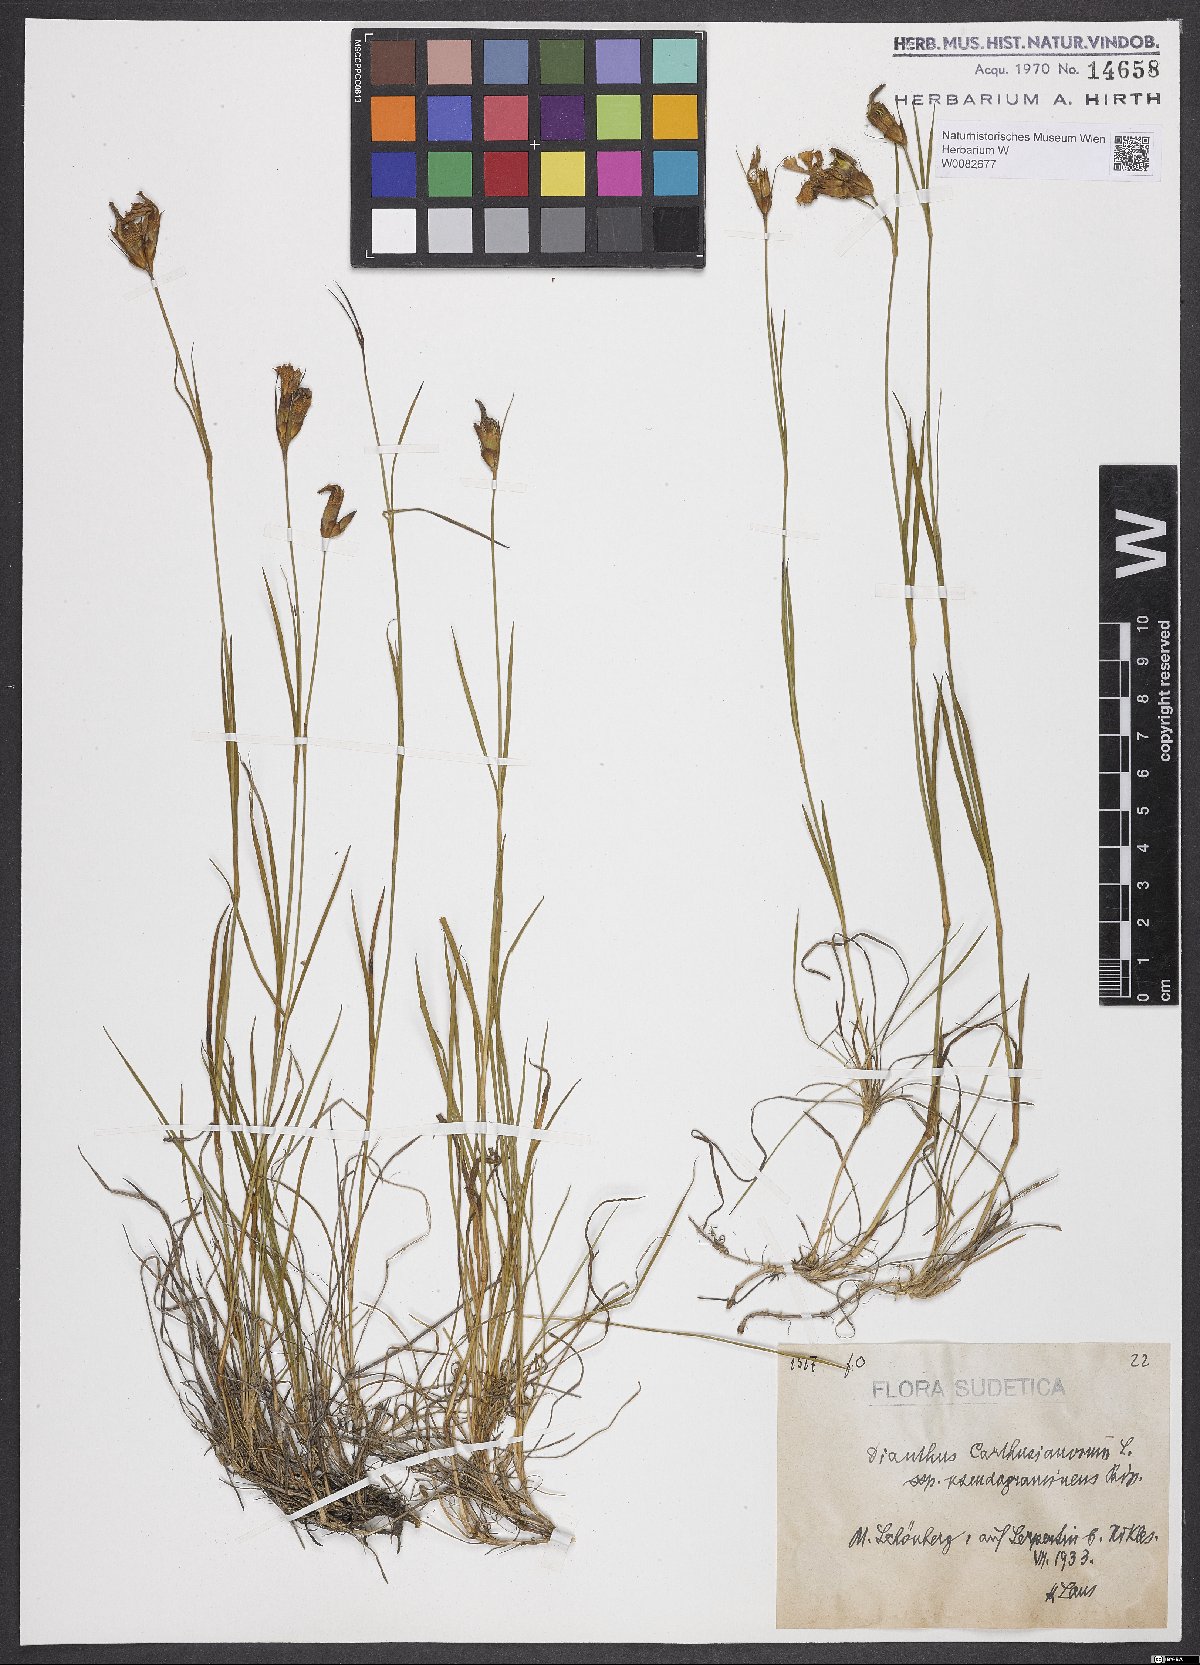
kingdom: Plantae
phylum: Tracheophyta
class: Magnoliopsida
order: Caryophyllales
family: Caryophyllaceae
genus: Dianthus
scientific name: Dianthus carthusianorum
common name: Carthusian pink
